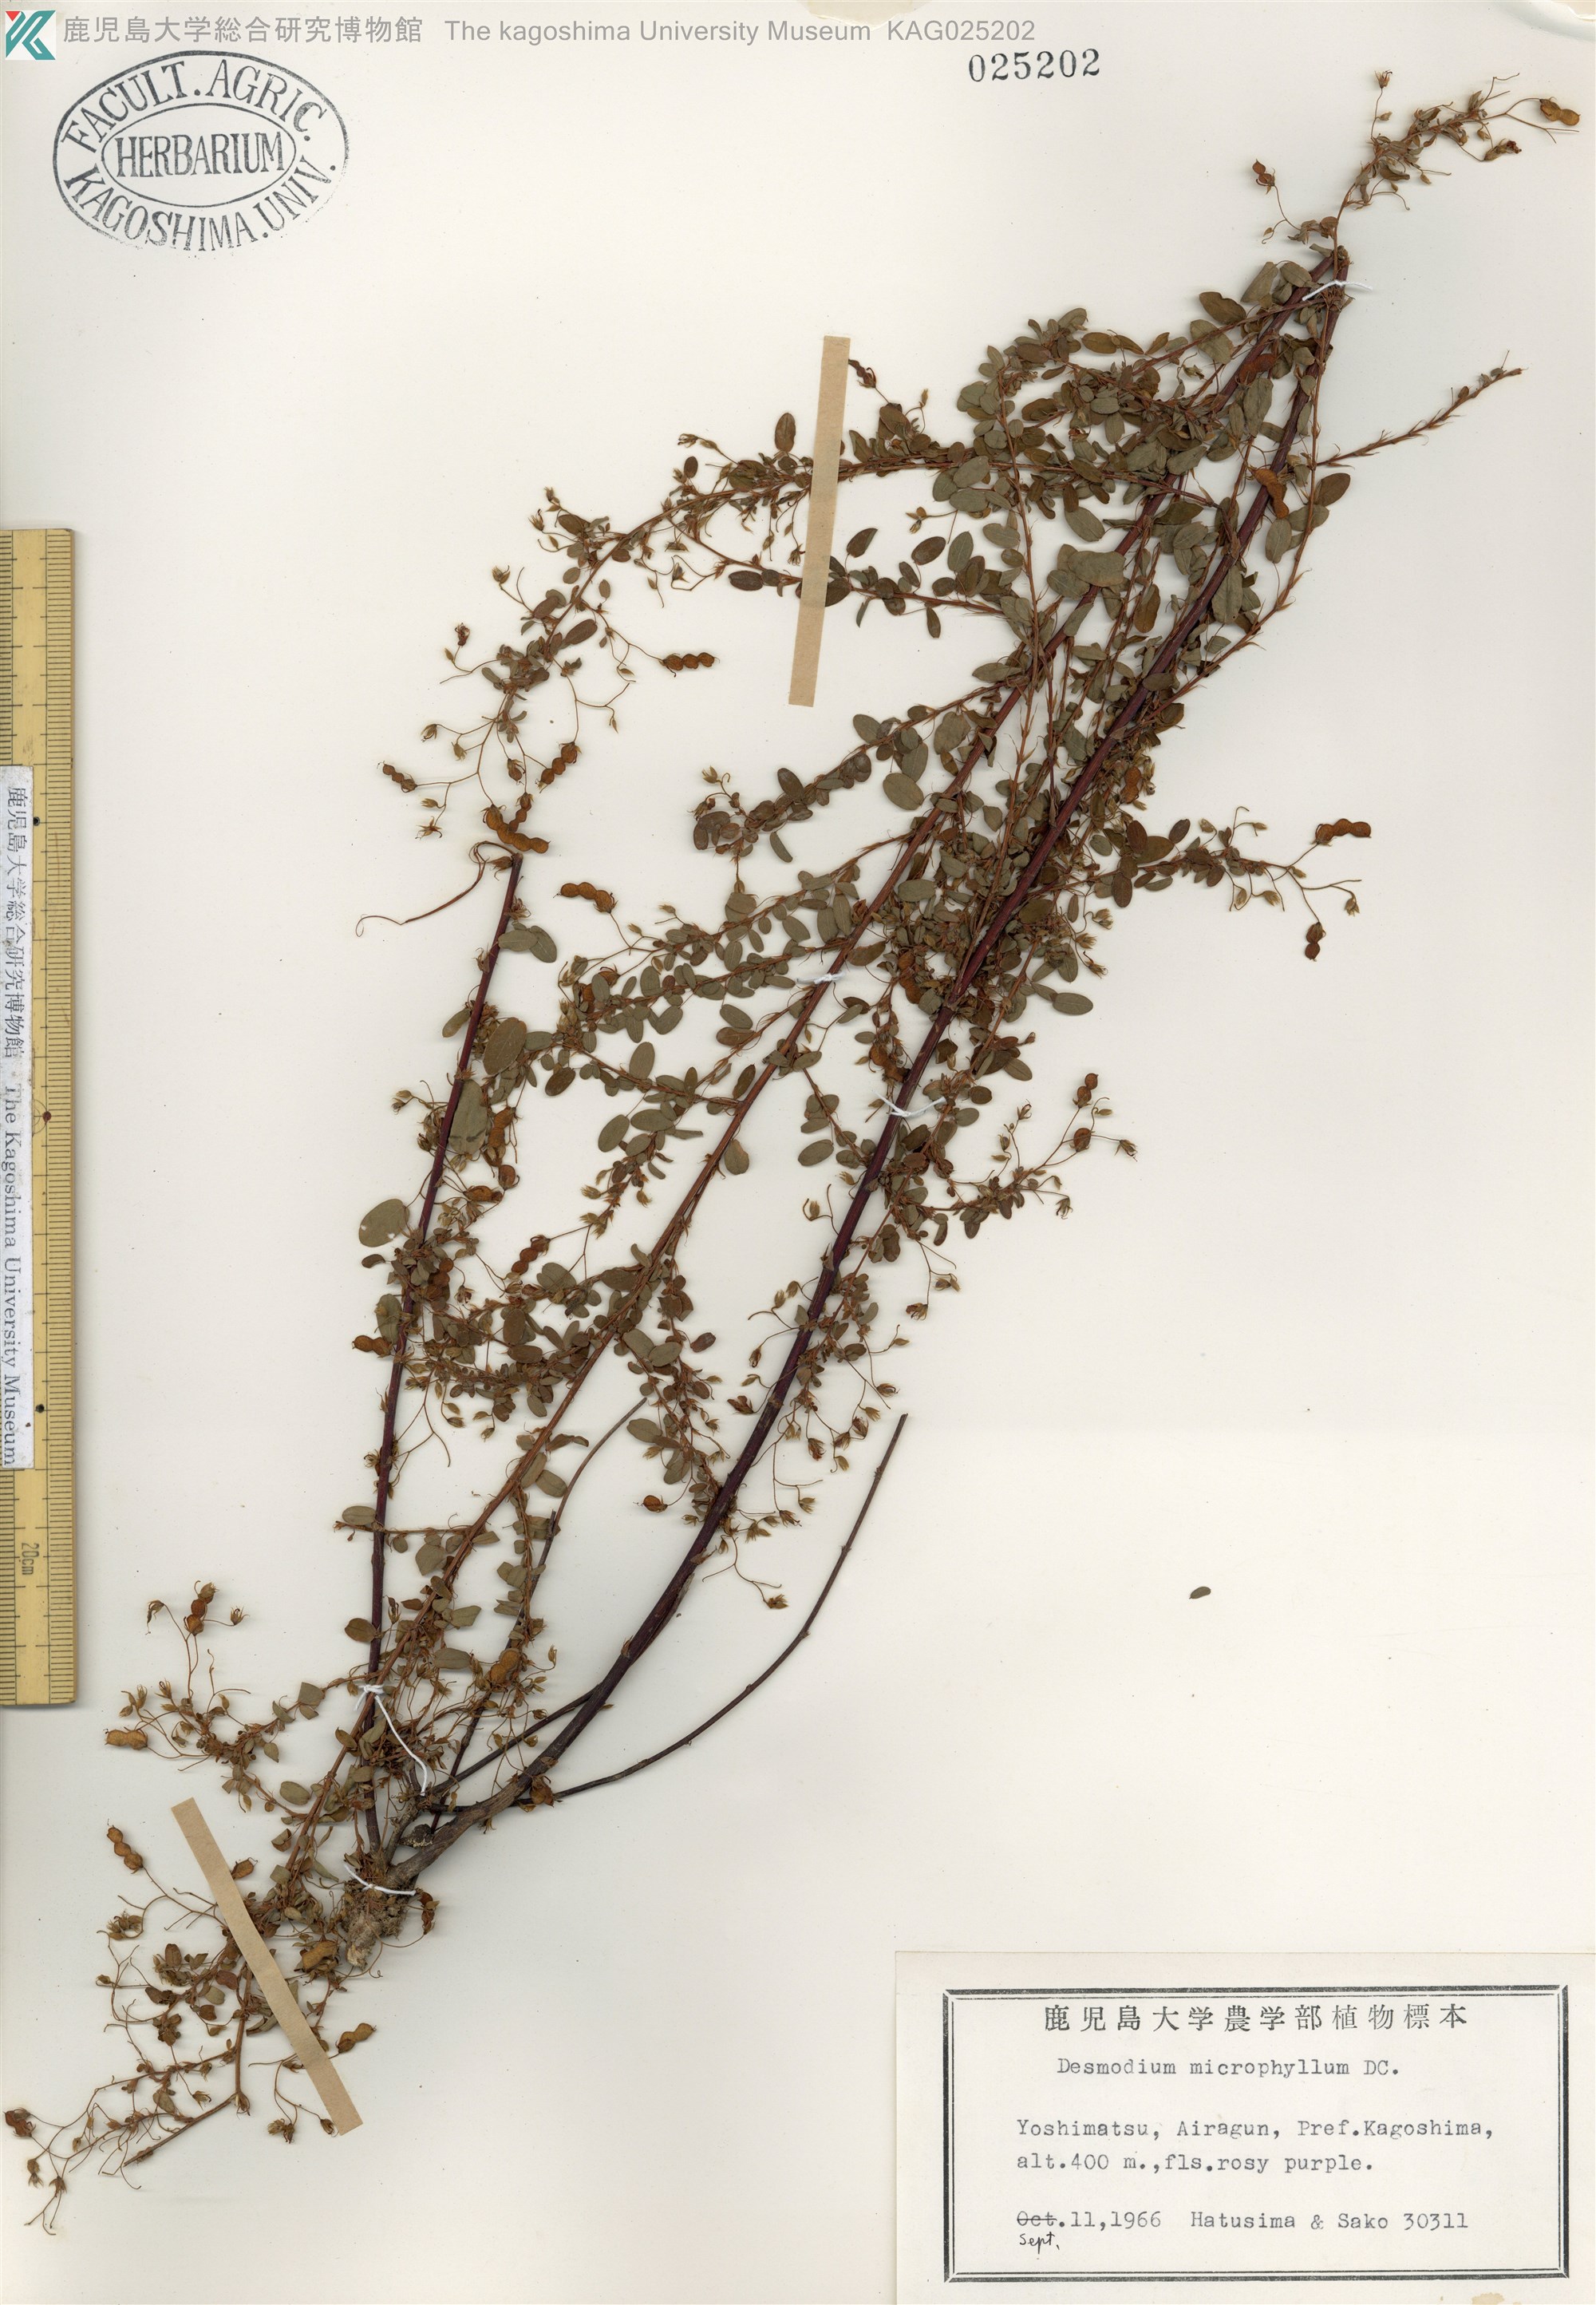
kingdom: Plantae
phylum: Tracheophyta
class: Magnoliopsida
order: Fabales
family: Fabaceae
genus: Leptodesmia
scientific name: Leptodesmia microphylla
